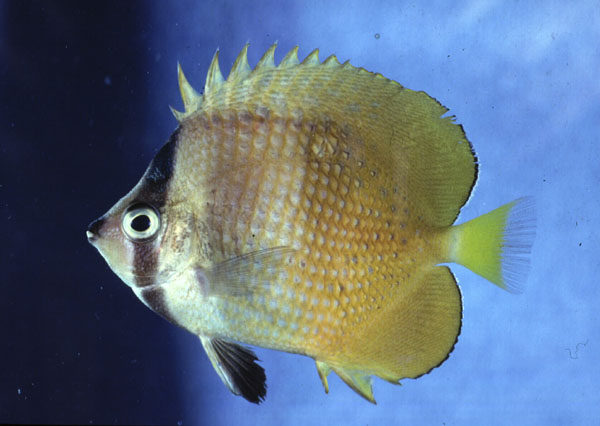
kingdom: Animalia
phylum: Chordata
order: Perciformes
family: Chaetodontidae
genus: Chaetodon
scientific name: Chaetodon kleinii
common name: Klein's butterflyfish
